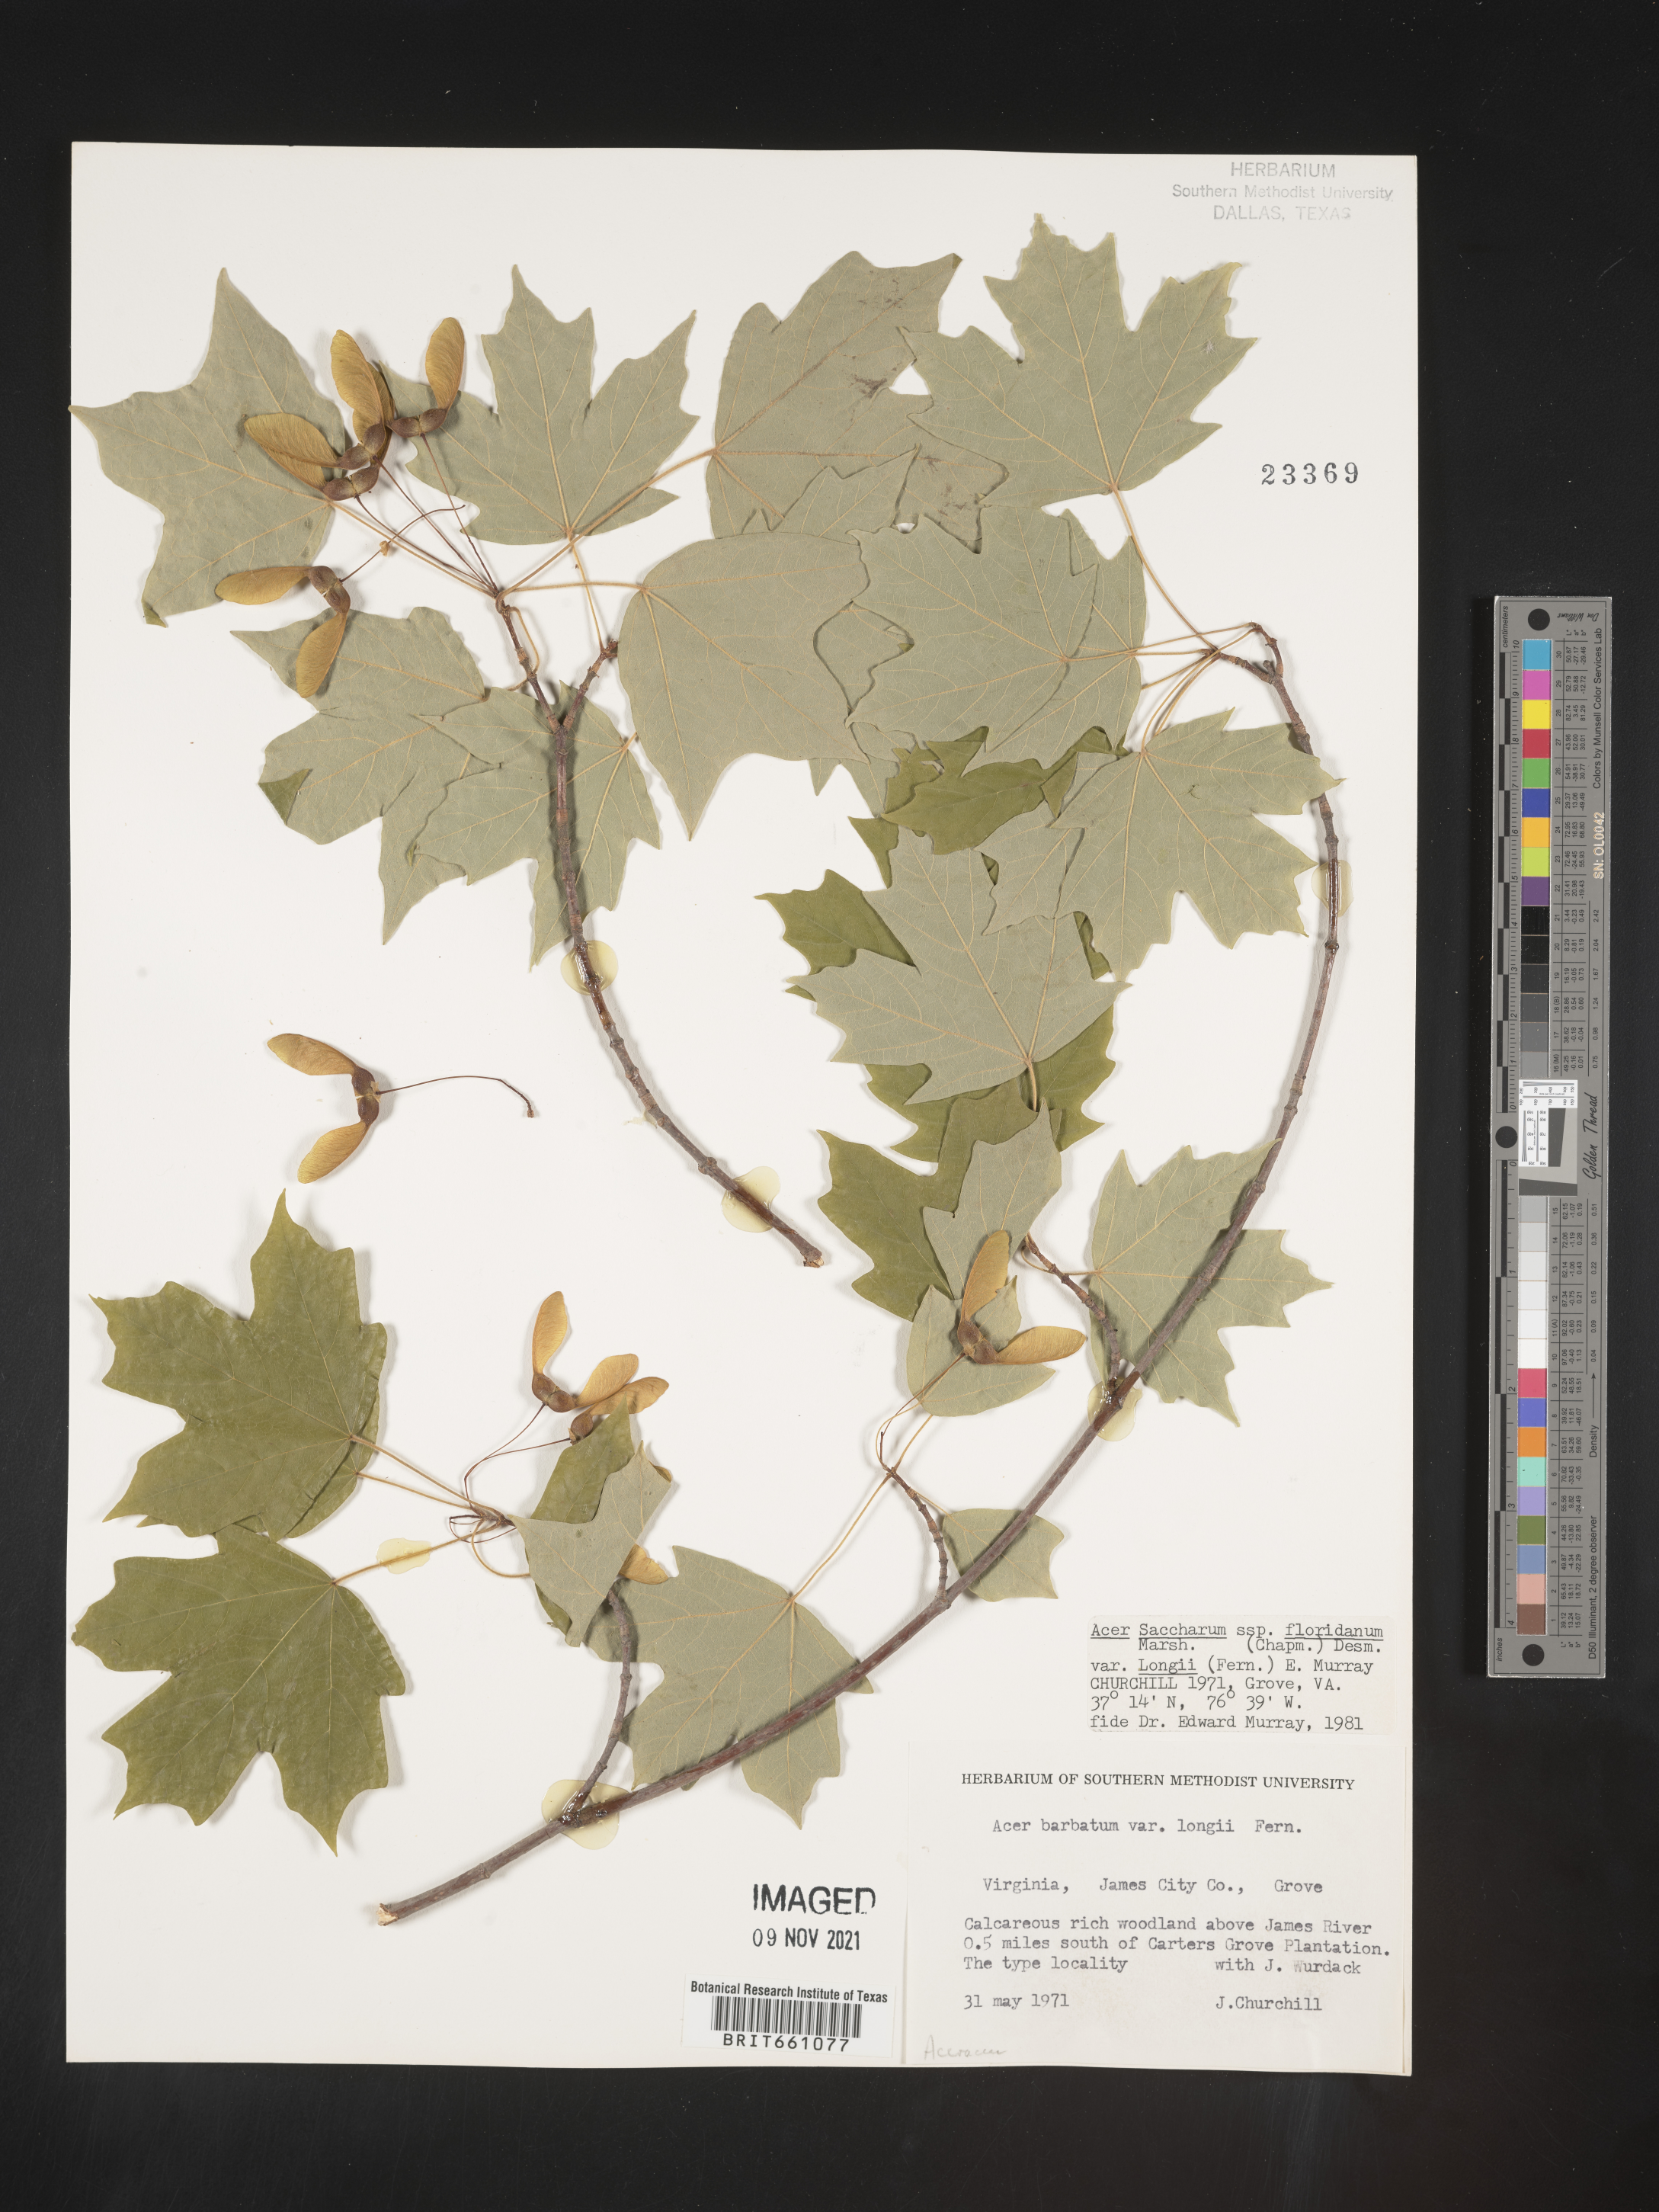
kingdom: Plantae
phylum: Tracheophyta
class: Magnoliopsida
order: Sapindales
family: Sapindaceae
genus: Acer
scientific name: Acer barbatum
